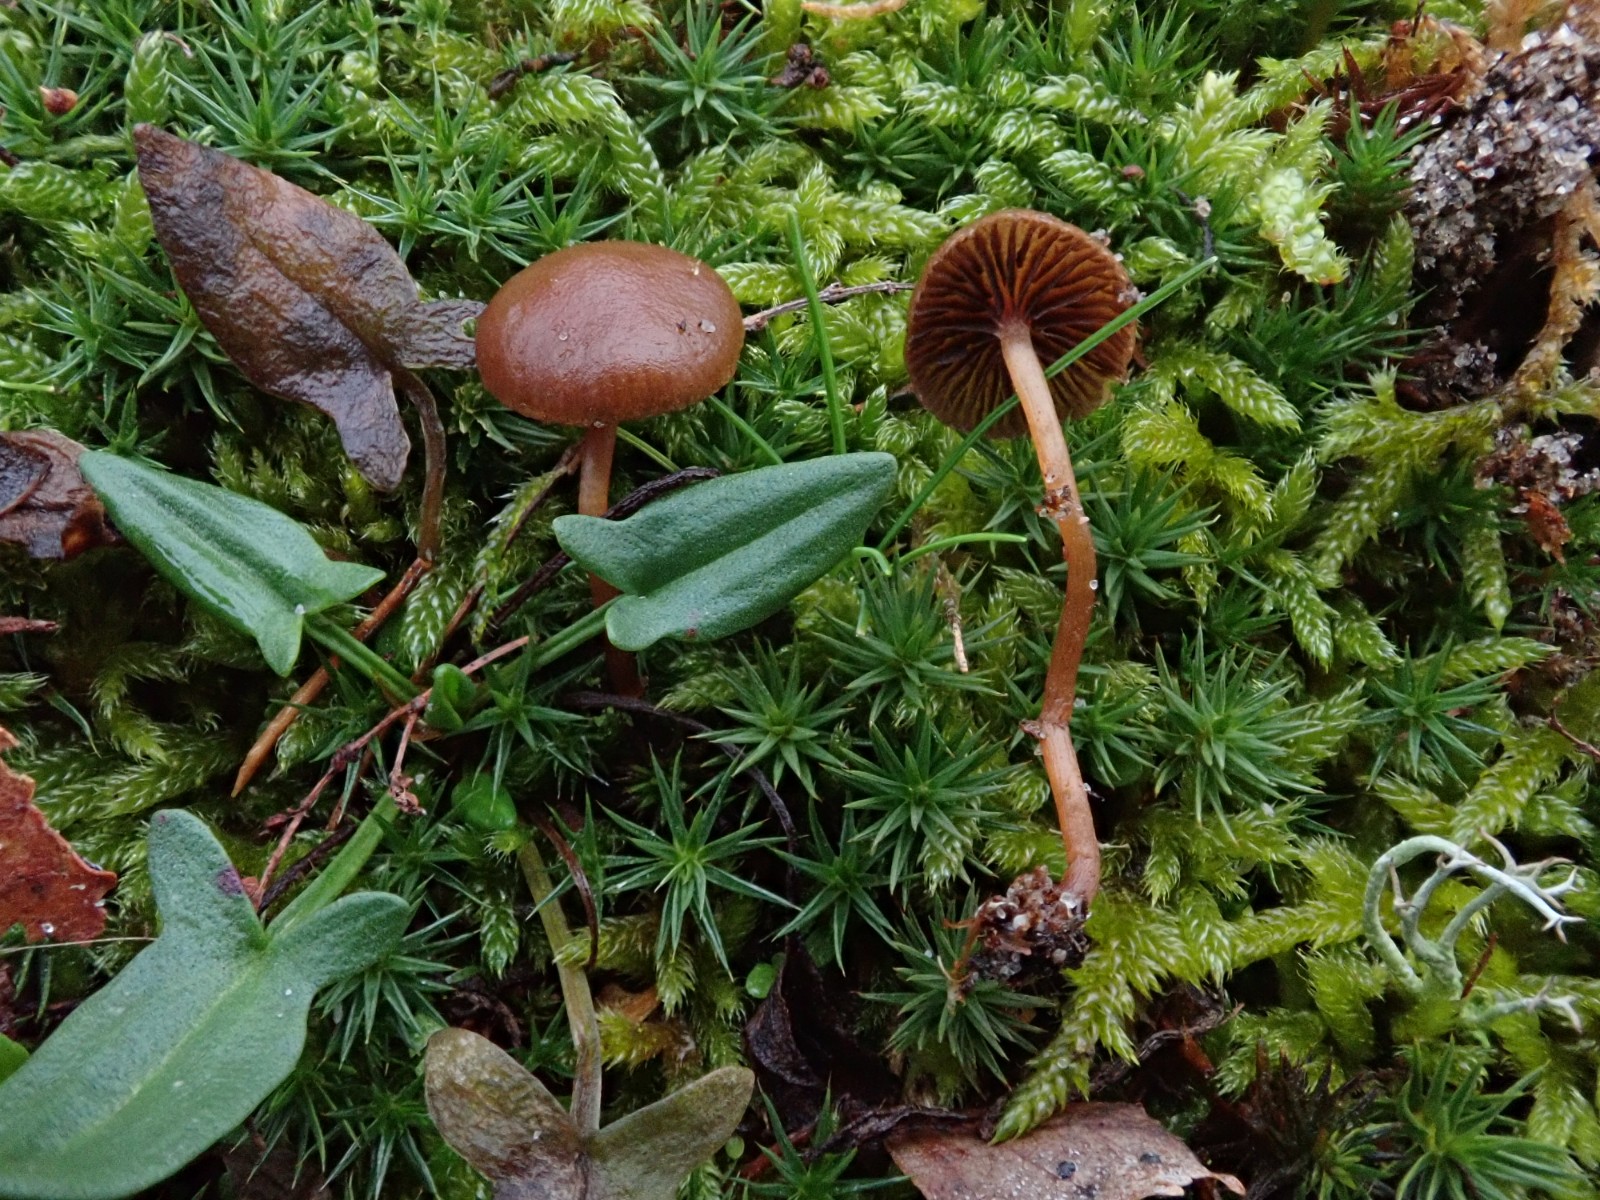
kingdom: Fungi
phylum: Basidiomycota
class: Agaricomycetes
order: Agaricales
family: Strophariaceae
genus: Deconica
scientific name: Deconica montana
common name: rødbrun stråhat
